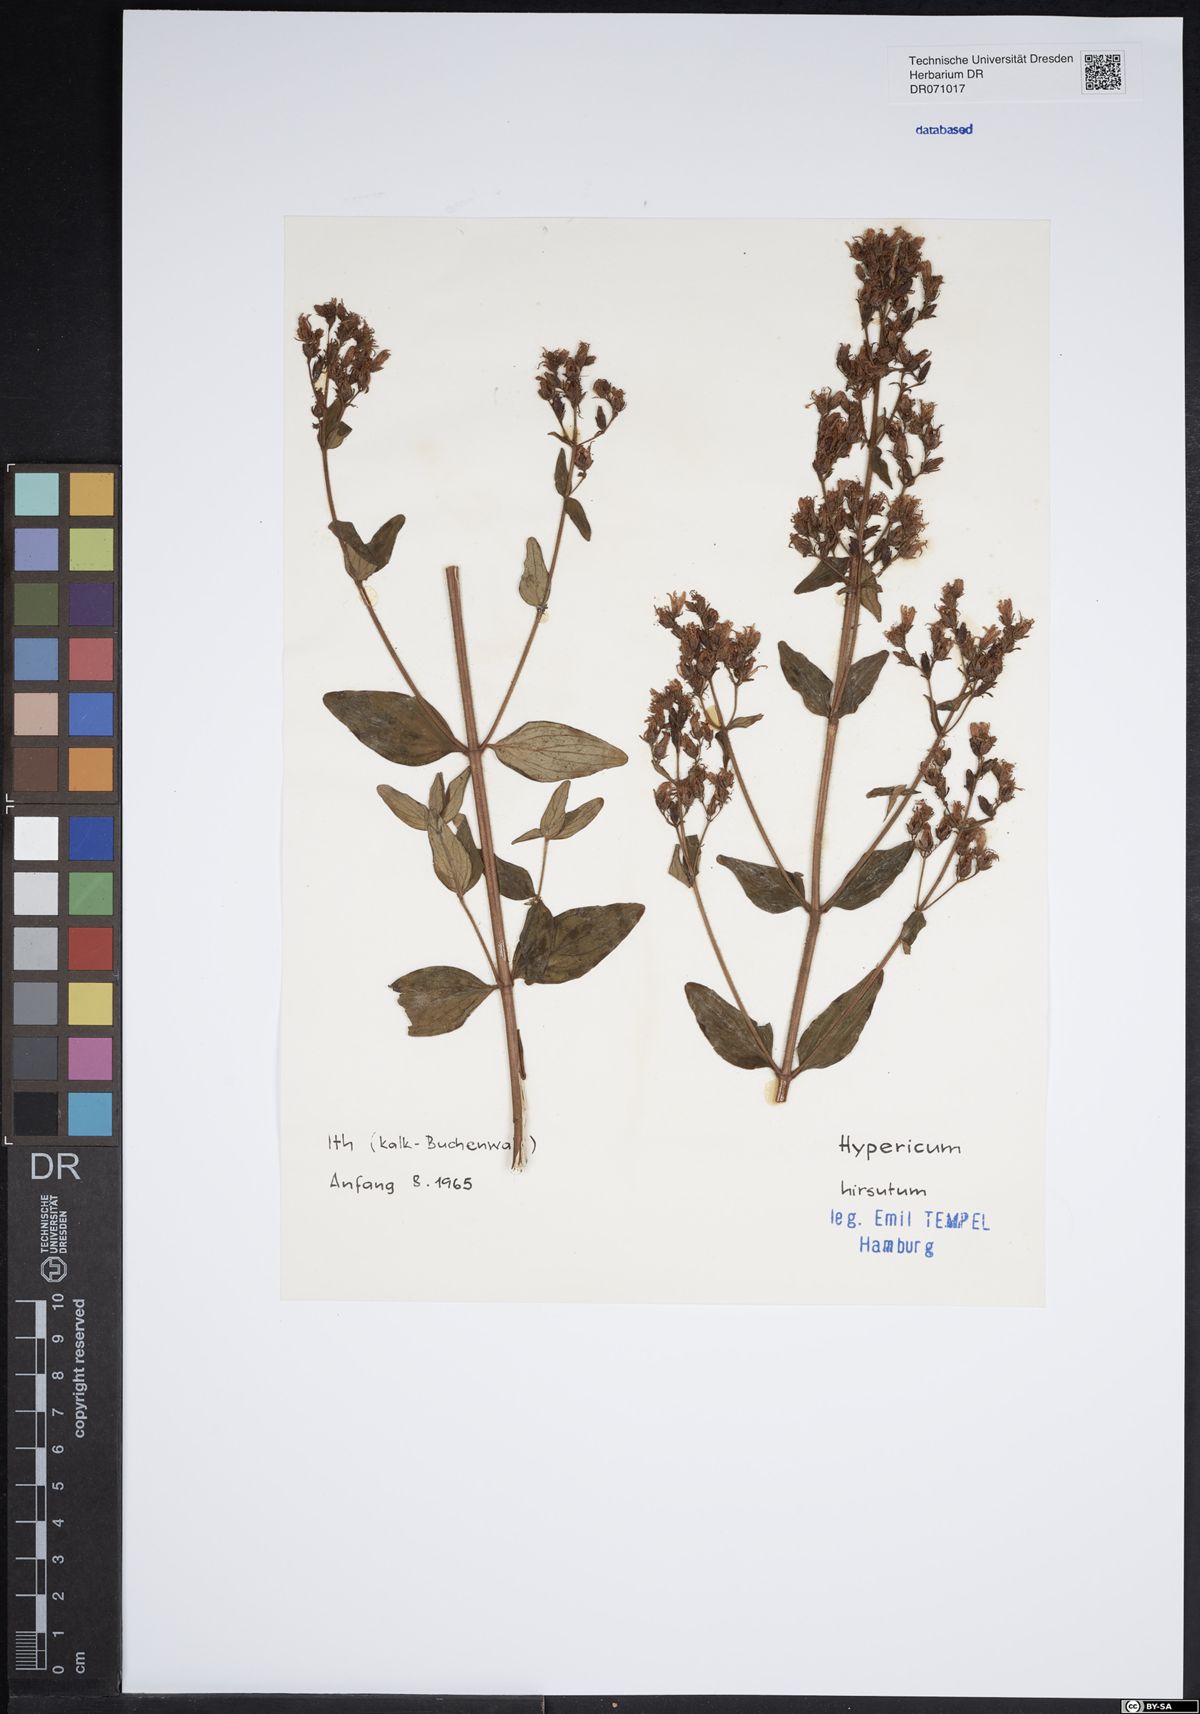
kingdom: Plantae
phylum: Tracheophyta
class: Magnoliopsida
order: Malpighiales
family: Hypericaceae
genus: Hypericum
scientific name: Hypericum hirsutum
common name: Hairy st. john's-wort
